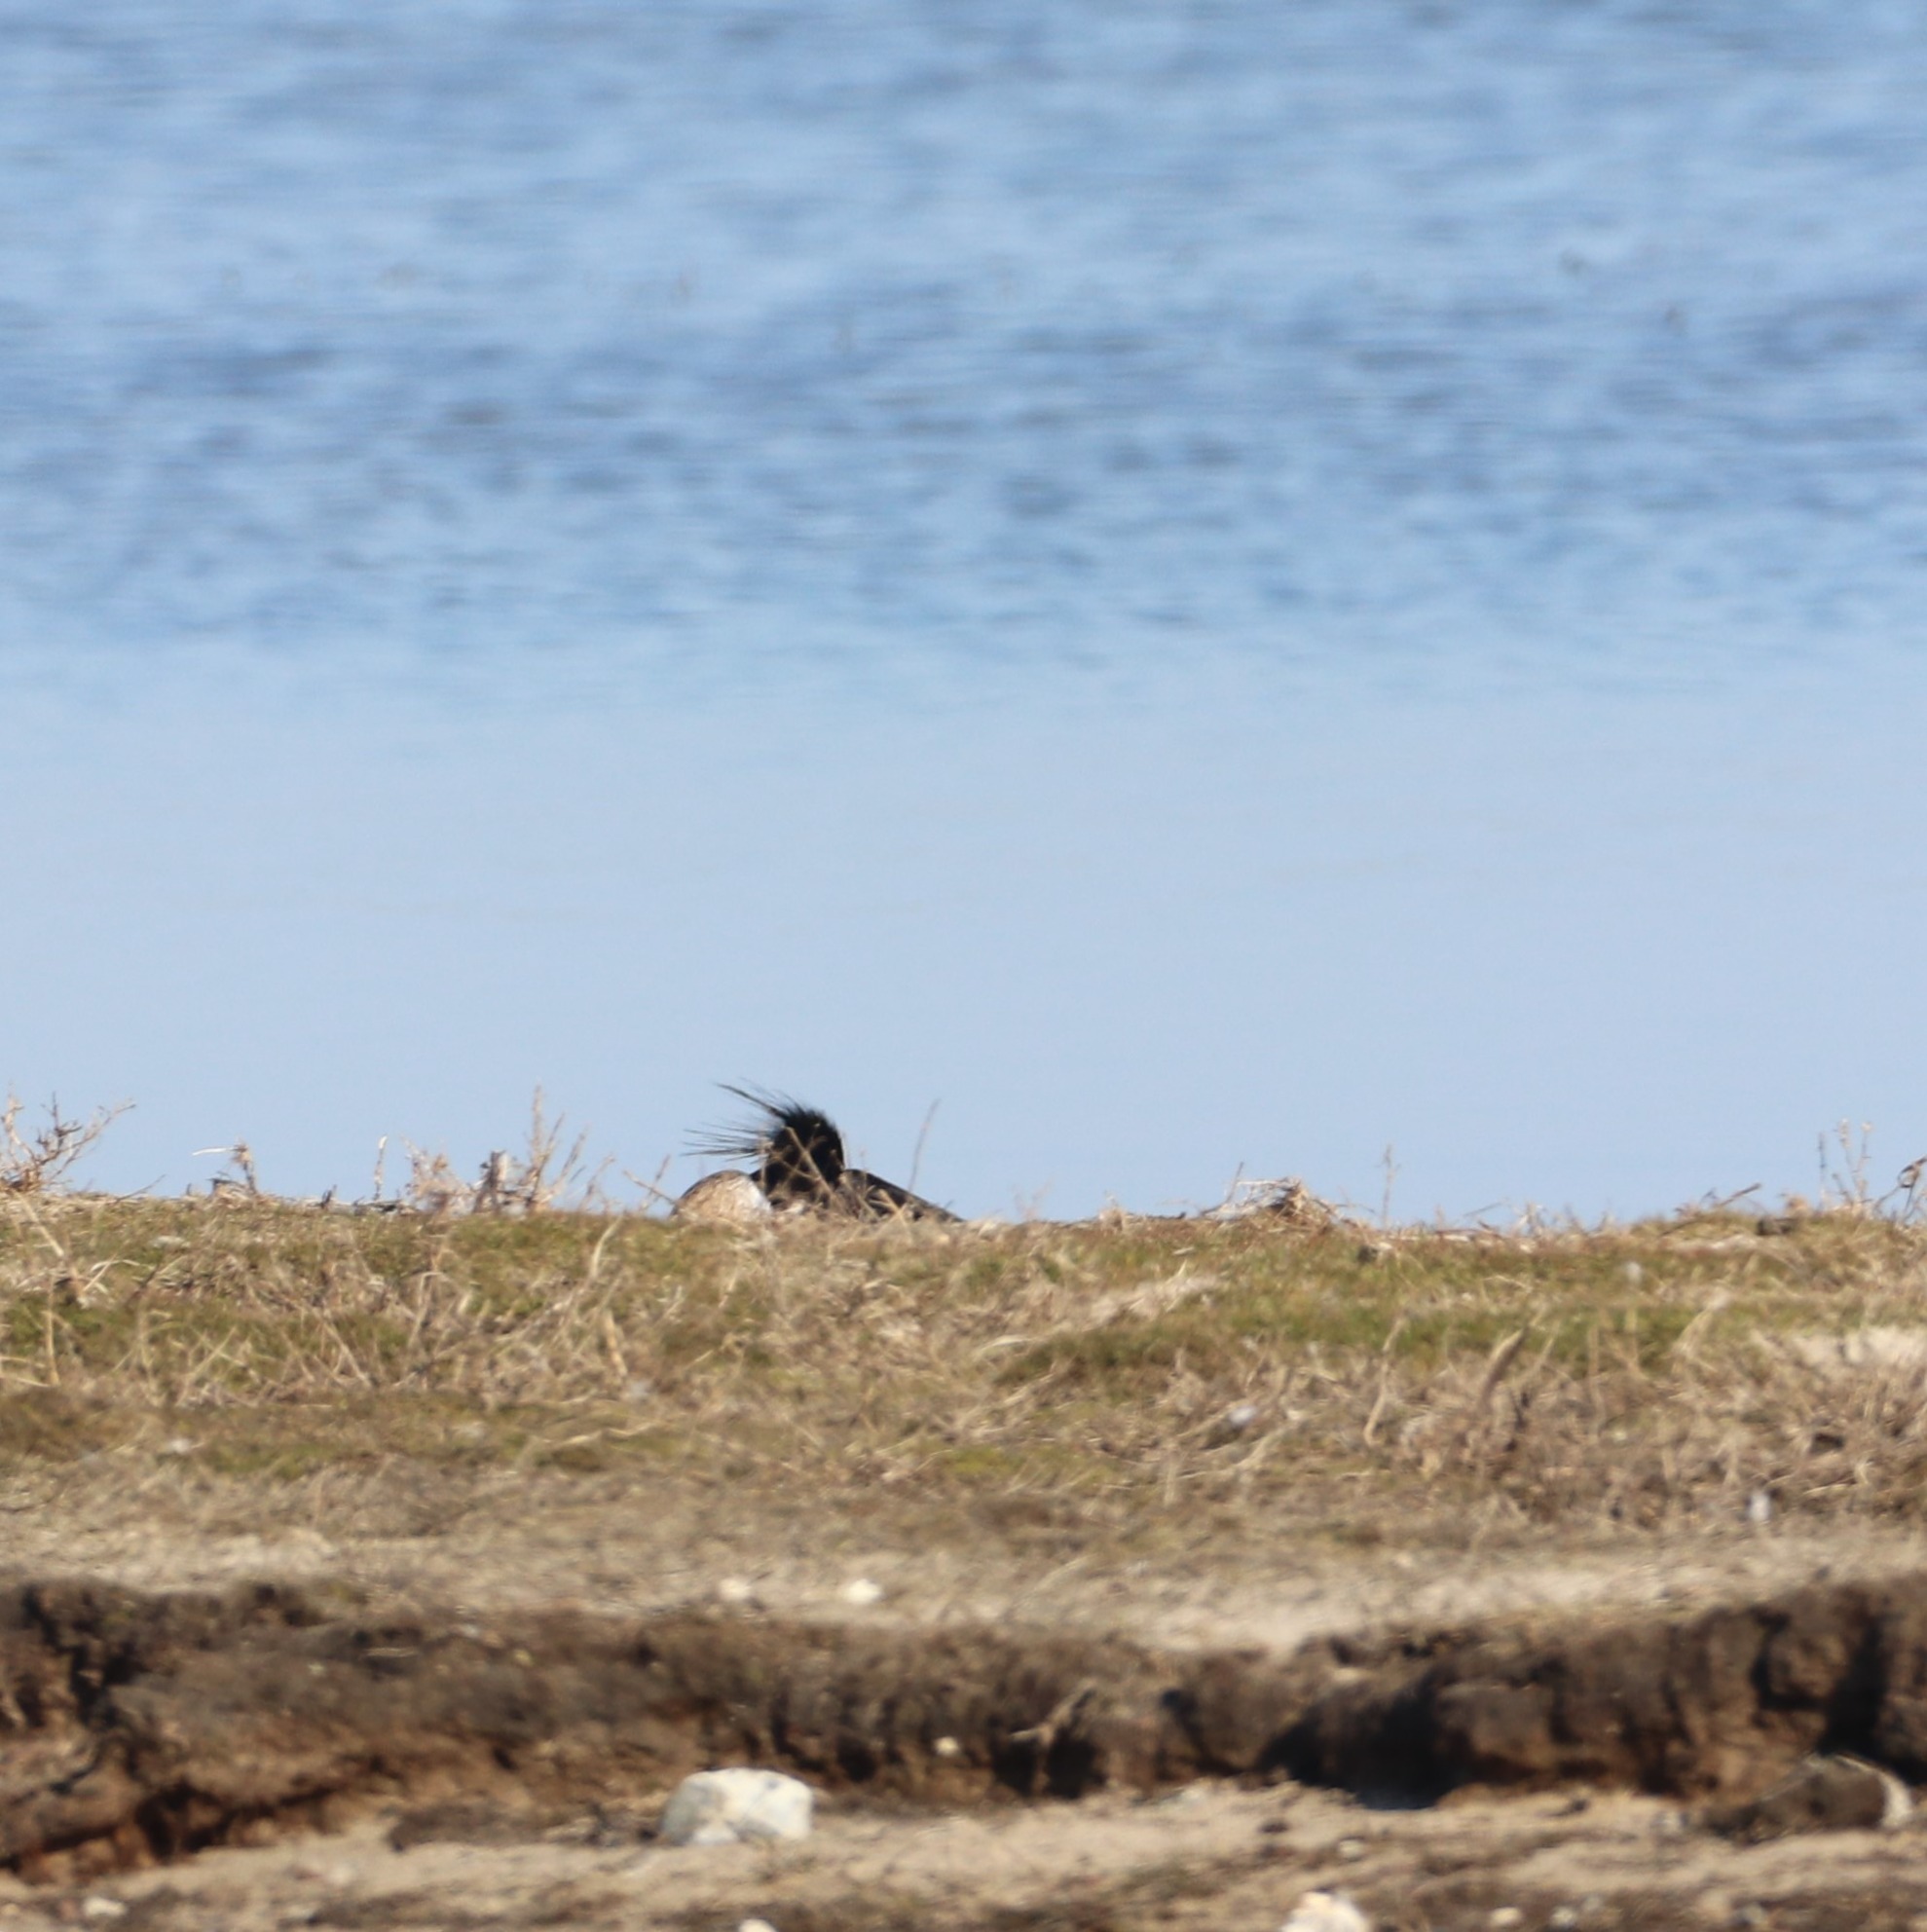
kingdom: Animalia
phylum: Chordata
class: Aves
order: Anseriformes
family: Anatidae
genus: Mergus
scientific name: Mergus serrator
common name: Toppet skallesluger
